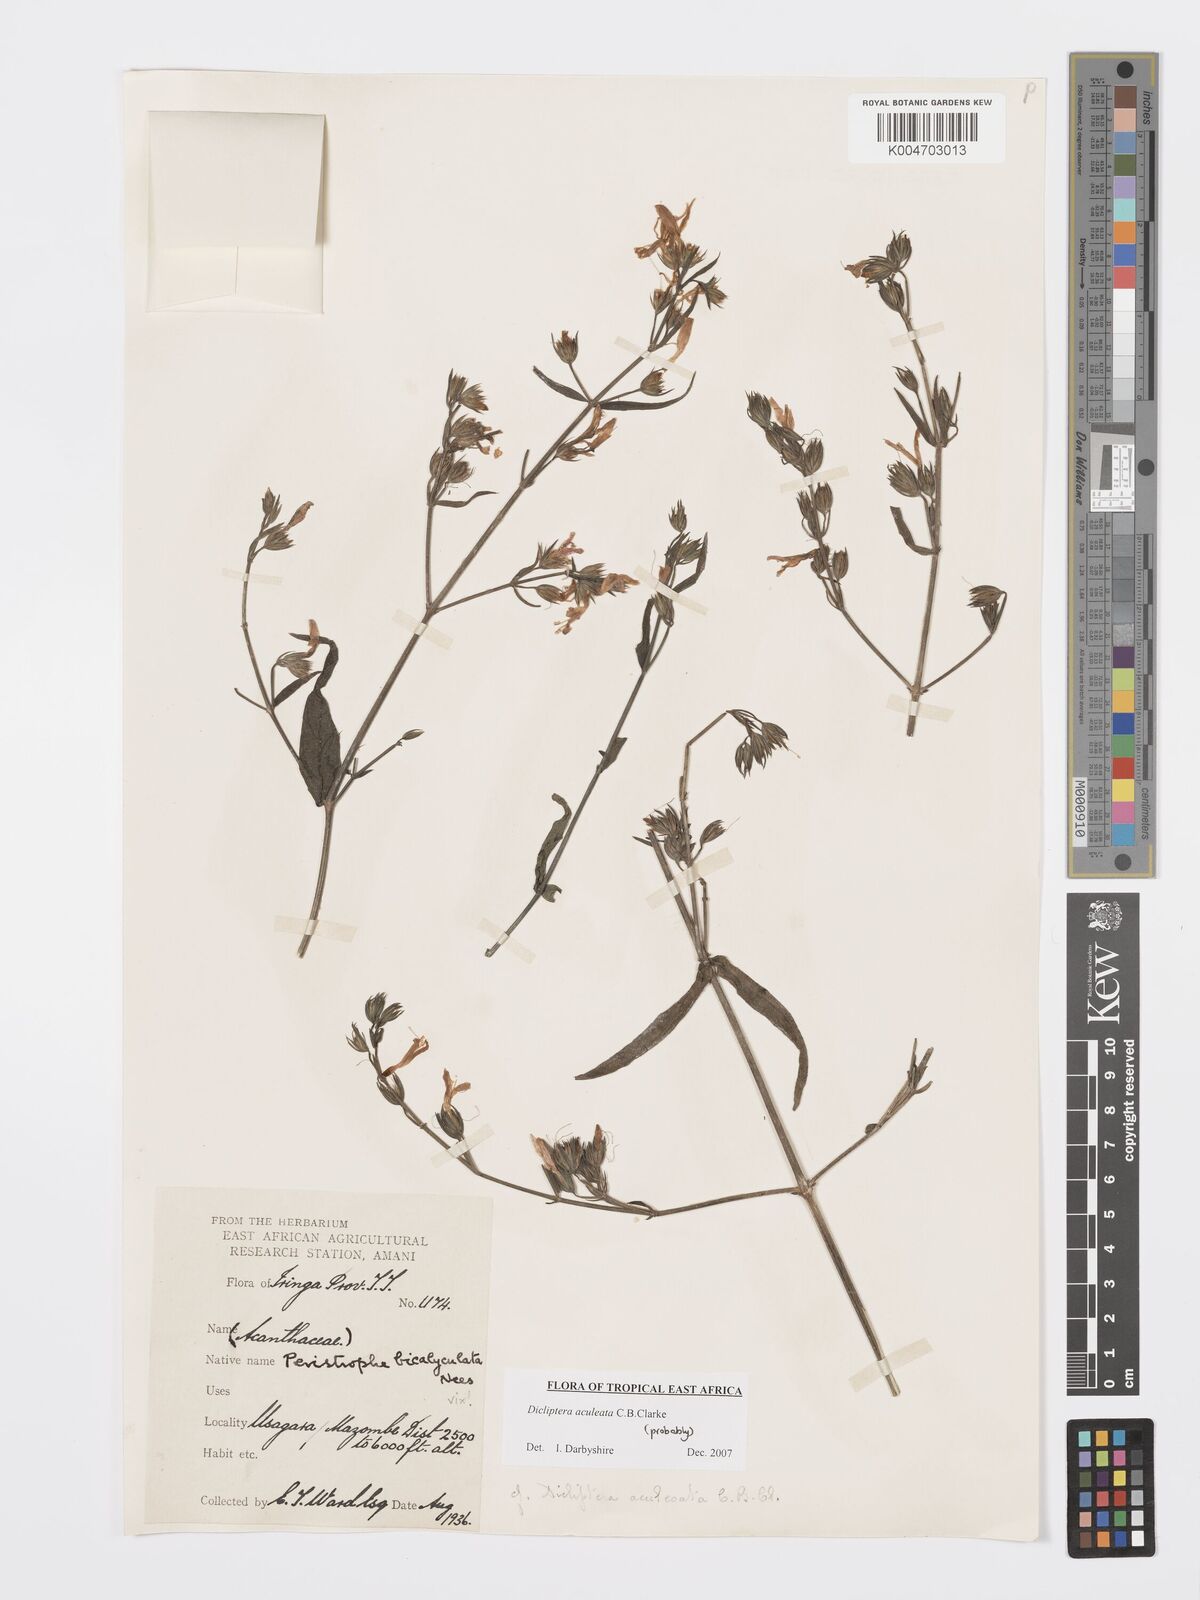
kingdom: Plantae
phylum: Tracheophyta
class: Magnoliopsida
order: Lamiales
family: Acanthaceae
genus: Dicliptera
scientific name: Dicliptera hensii
